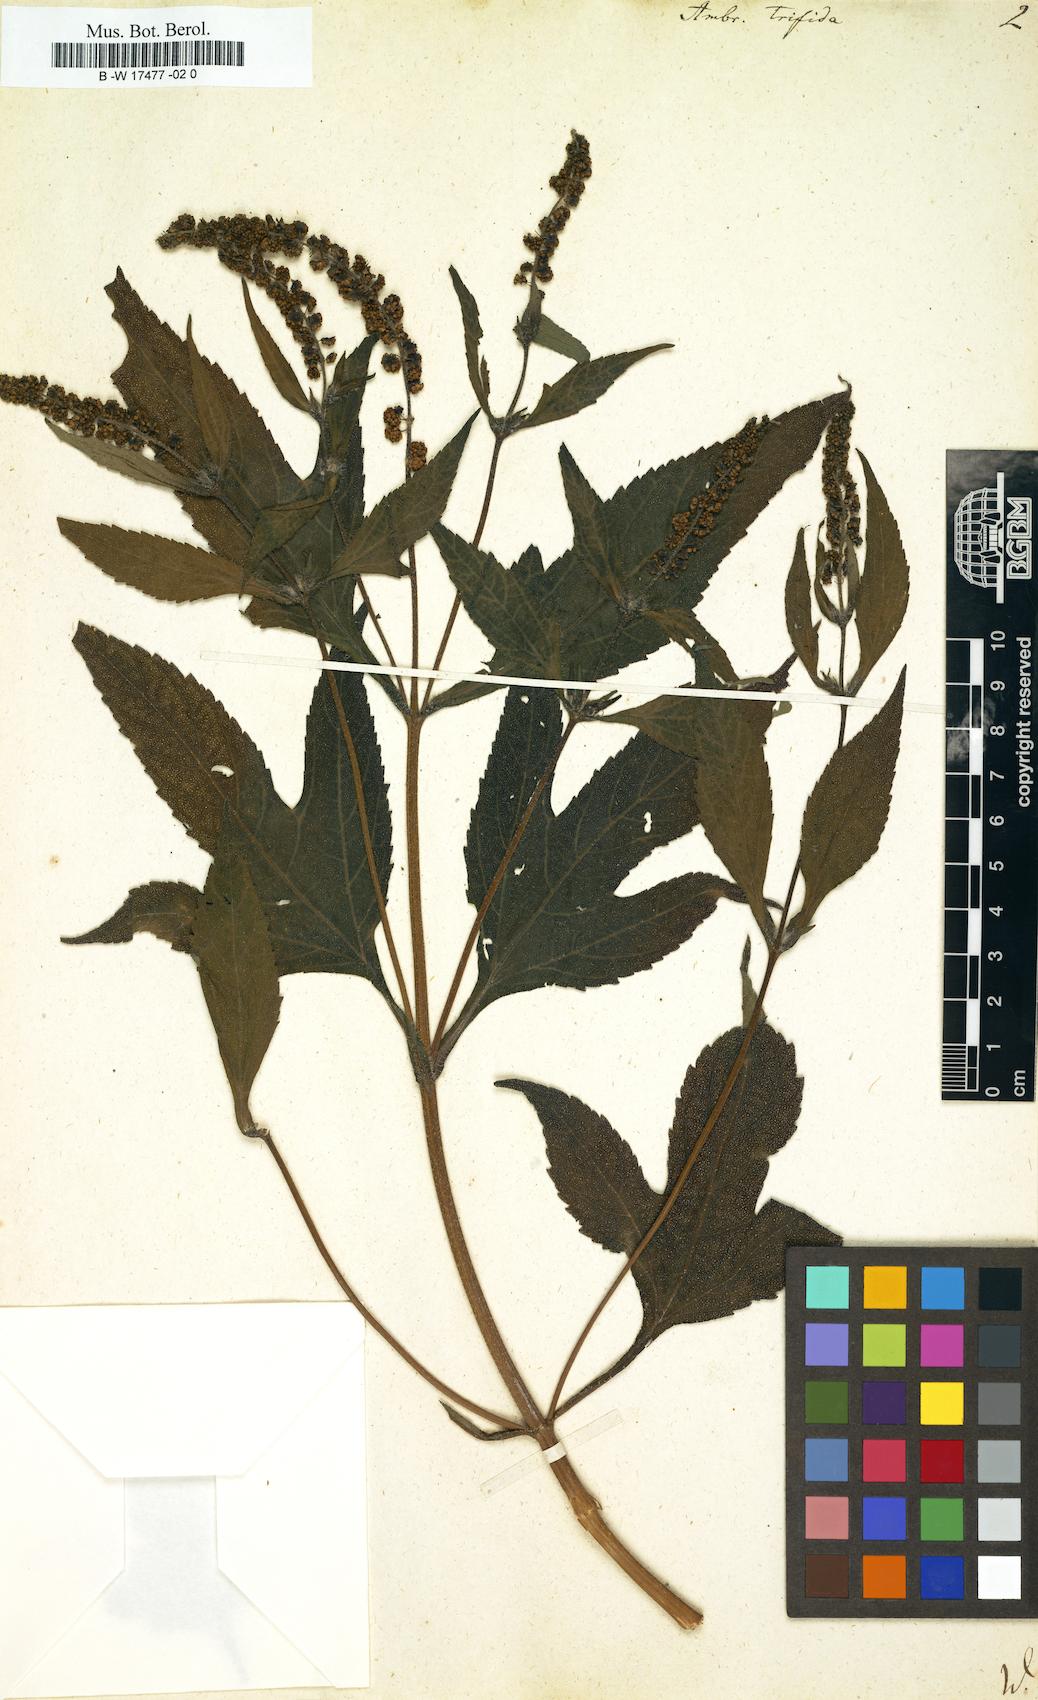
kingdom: Plantae
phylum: Tracheophyta
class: Magnoliopsida
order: Asterales
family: Asteraceae
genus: Ambrosia
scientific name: Ambrosia trifida
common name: Giant ragweed
